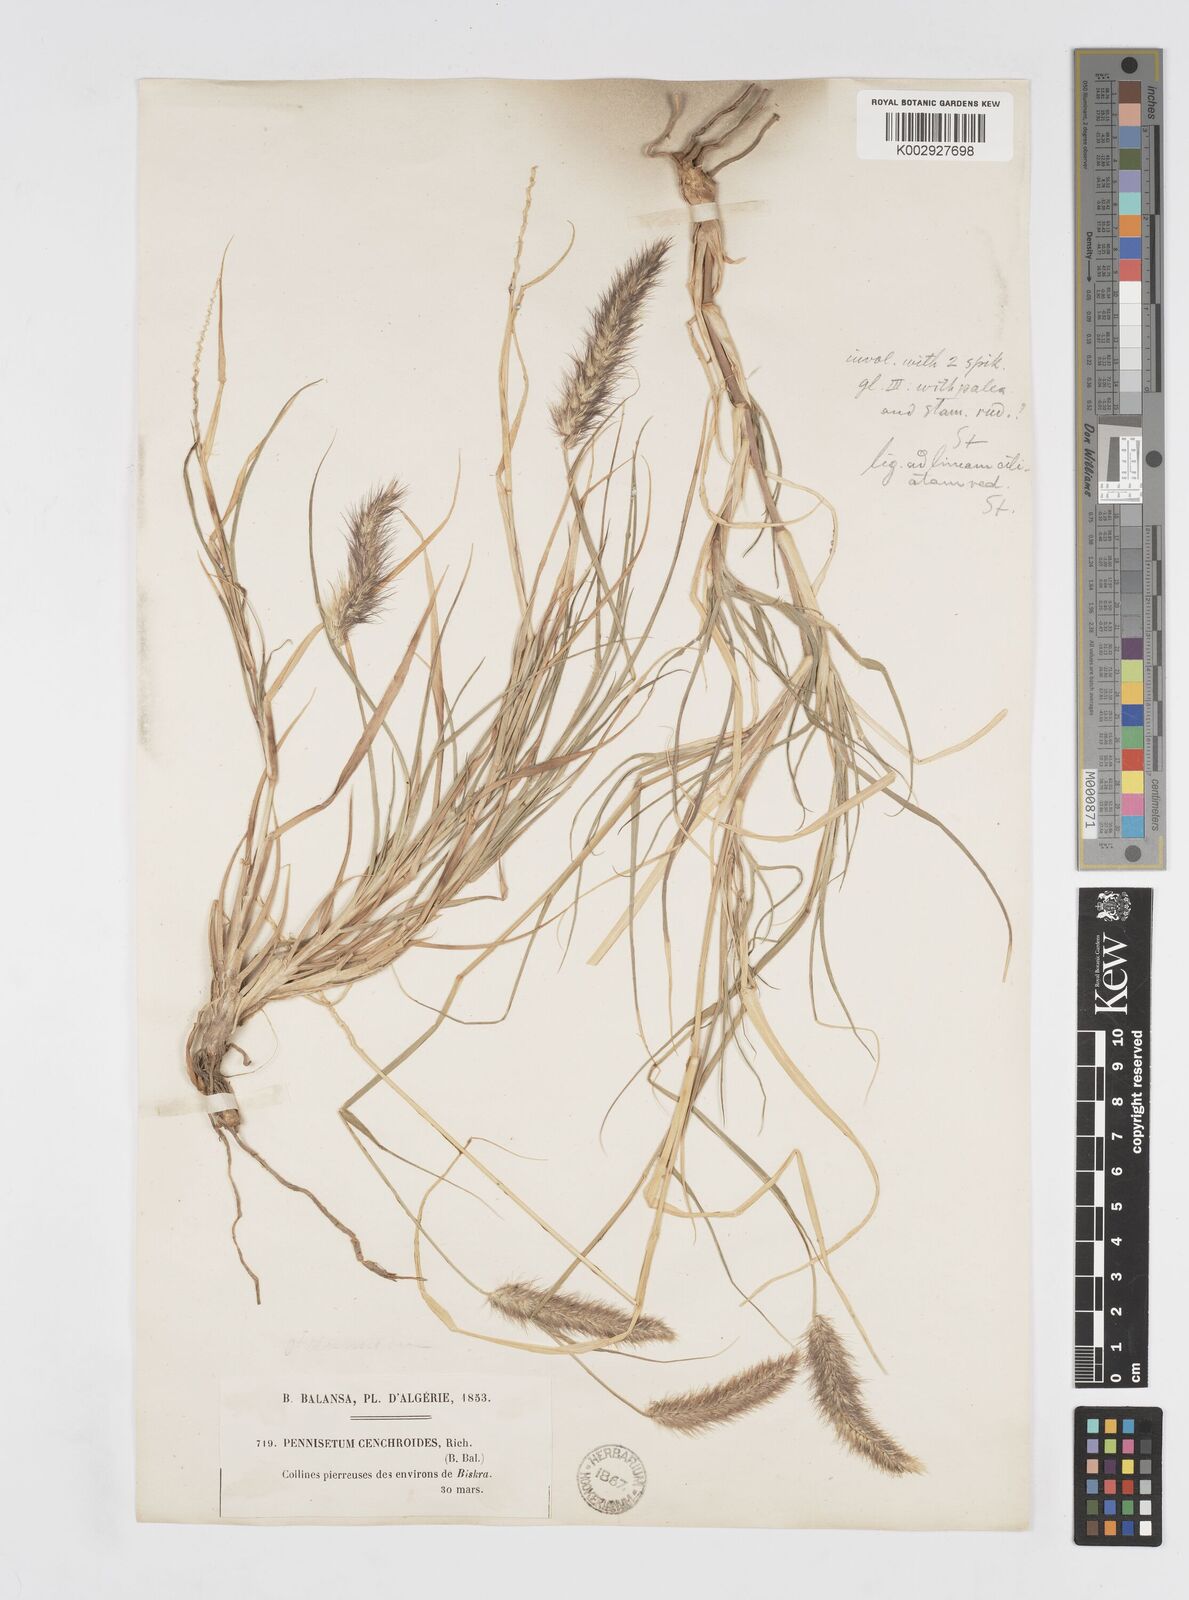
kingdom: Plantae
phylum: Tracheophyta
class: Liliopsida
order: Poales
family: Poaceae
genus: Cenchrus
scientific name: Cenchrus ciliaris
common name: Buffelgrass
